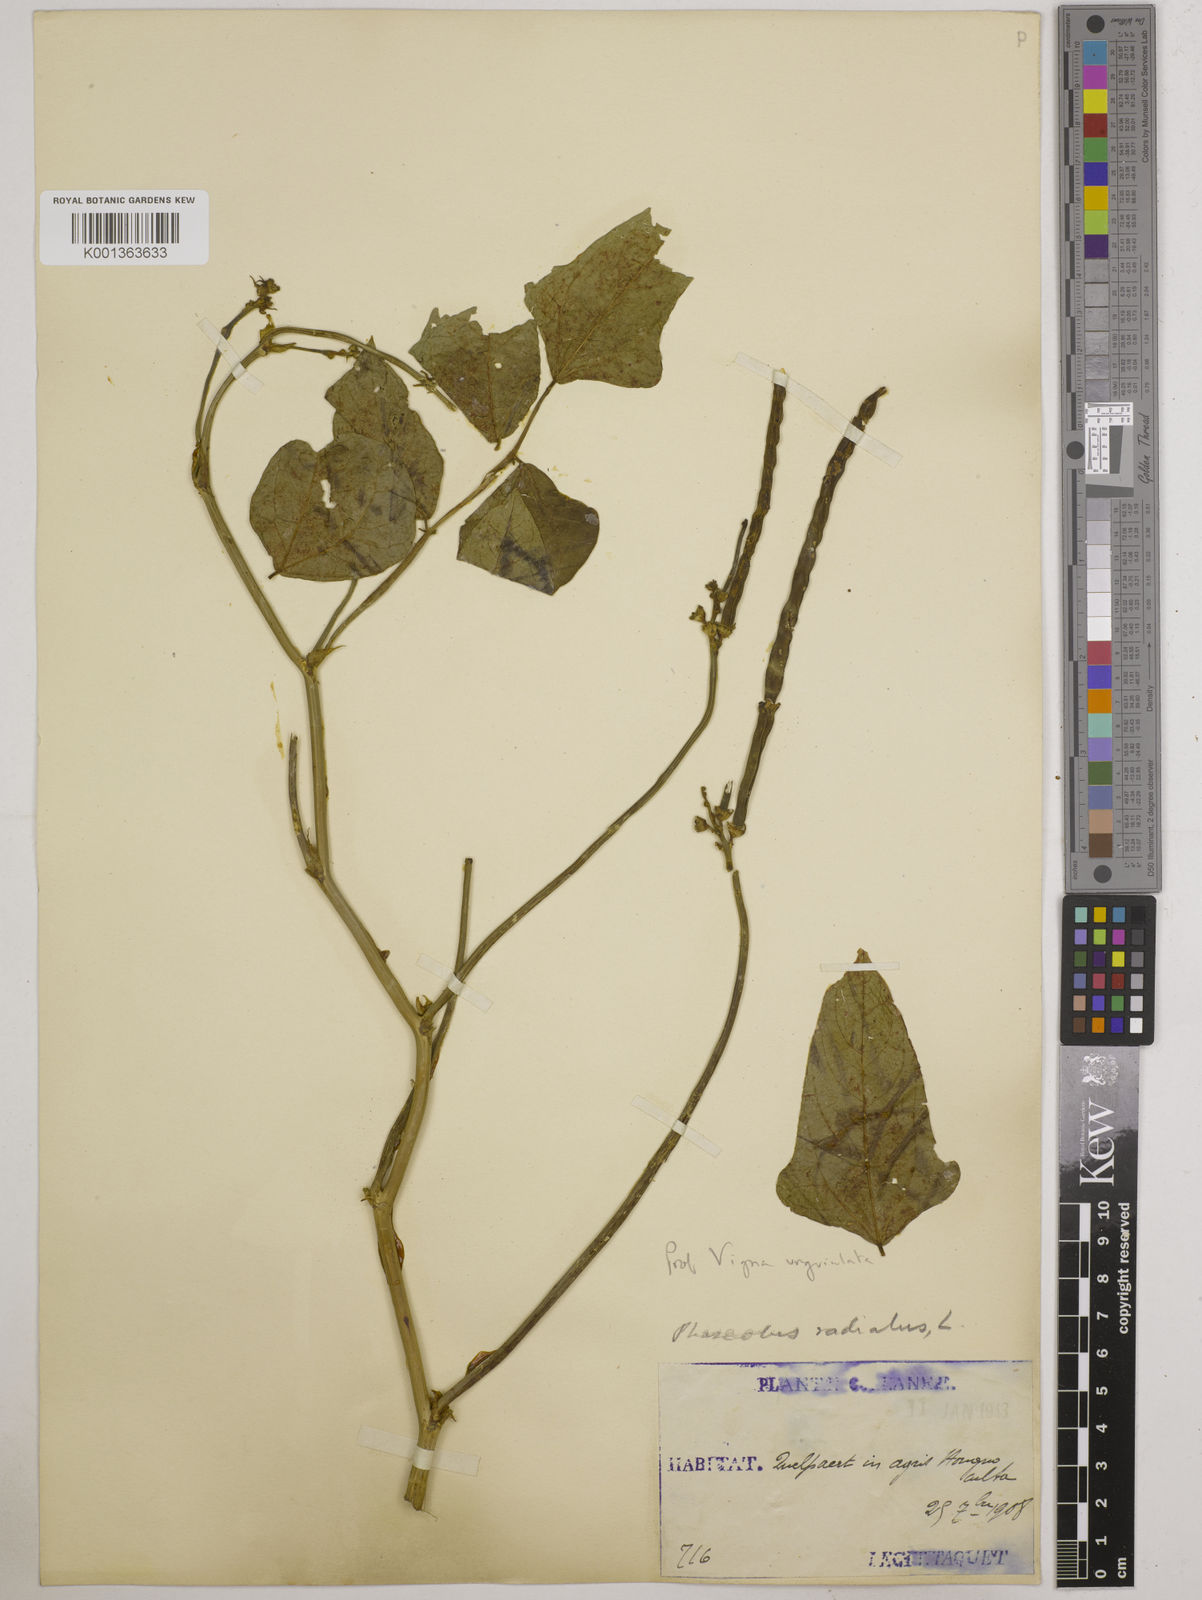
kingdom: Plantae
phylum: Tracheophyta
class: Magnoliopsida
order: Fabales
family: Fabaceae
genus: Vigna
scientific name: Vigna unguiculata
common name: Cowpea
